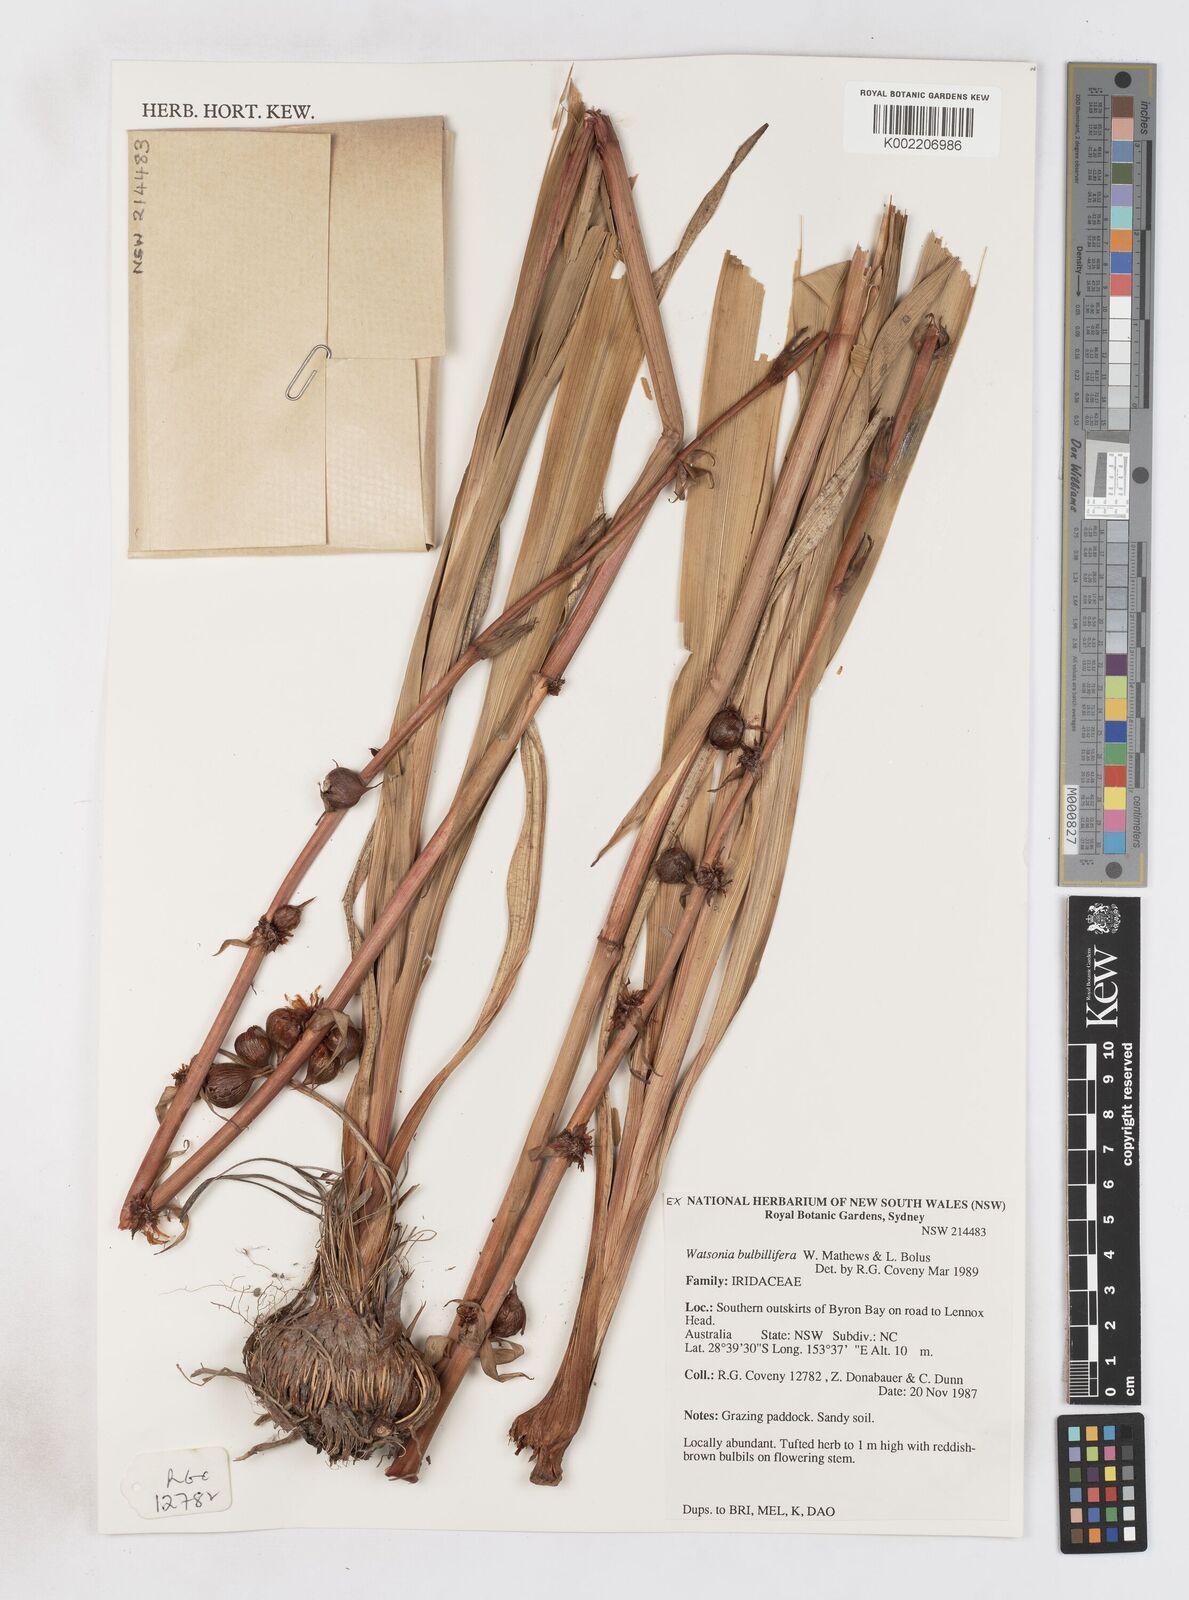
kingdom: Plantae
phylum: Tracheophyta
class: Liliopsida
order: Asparagales
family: Iridaceae
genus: Watsonia
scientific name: Watsonia meriana
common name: Bulbil bugle-lily
